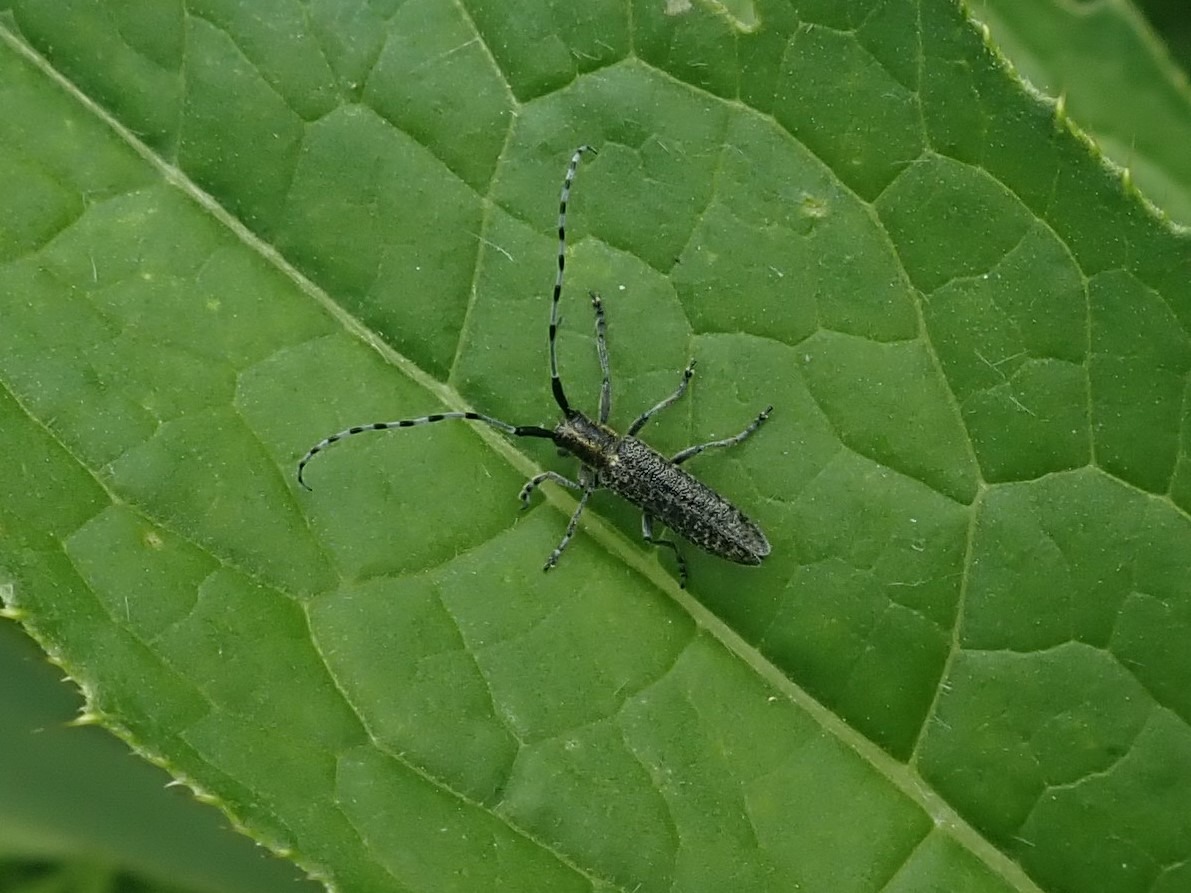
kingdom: Animalia
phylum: Arthropoda
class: Insecta
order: Coleoptera
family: Cerambycidae
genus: Agapanthia
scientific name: Agapanthia villosoviridescens
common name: Tidselbuk
